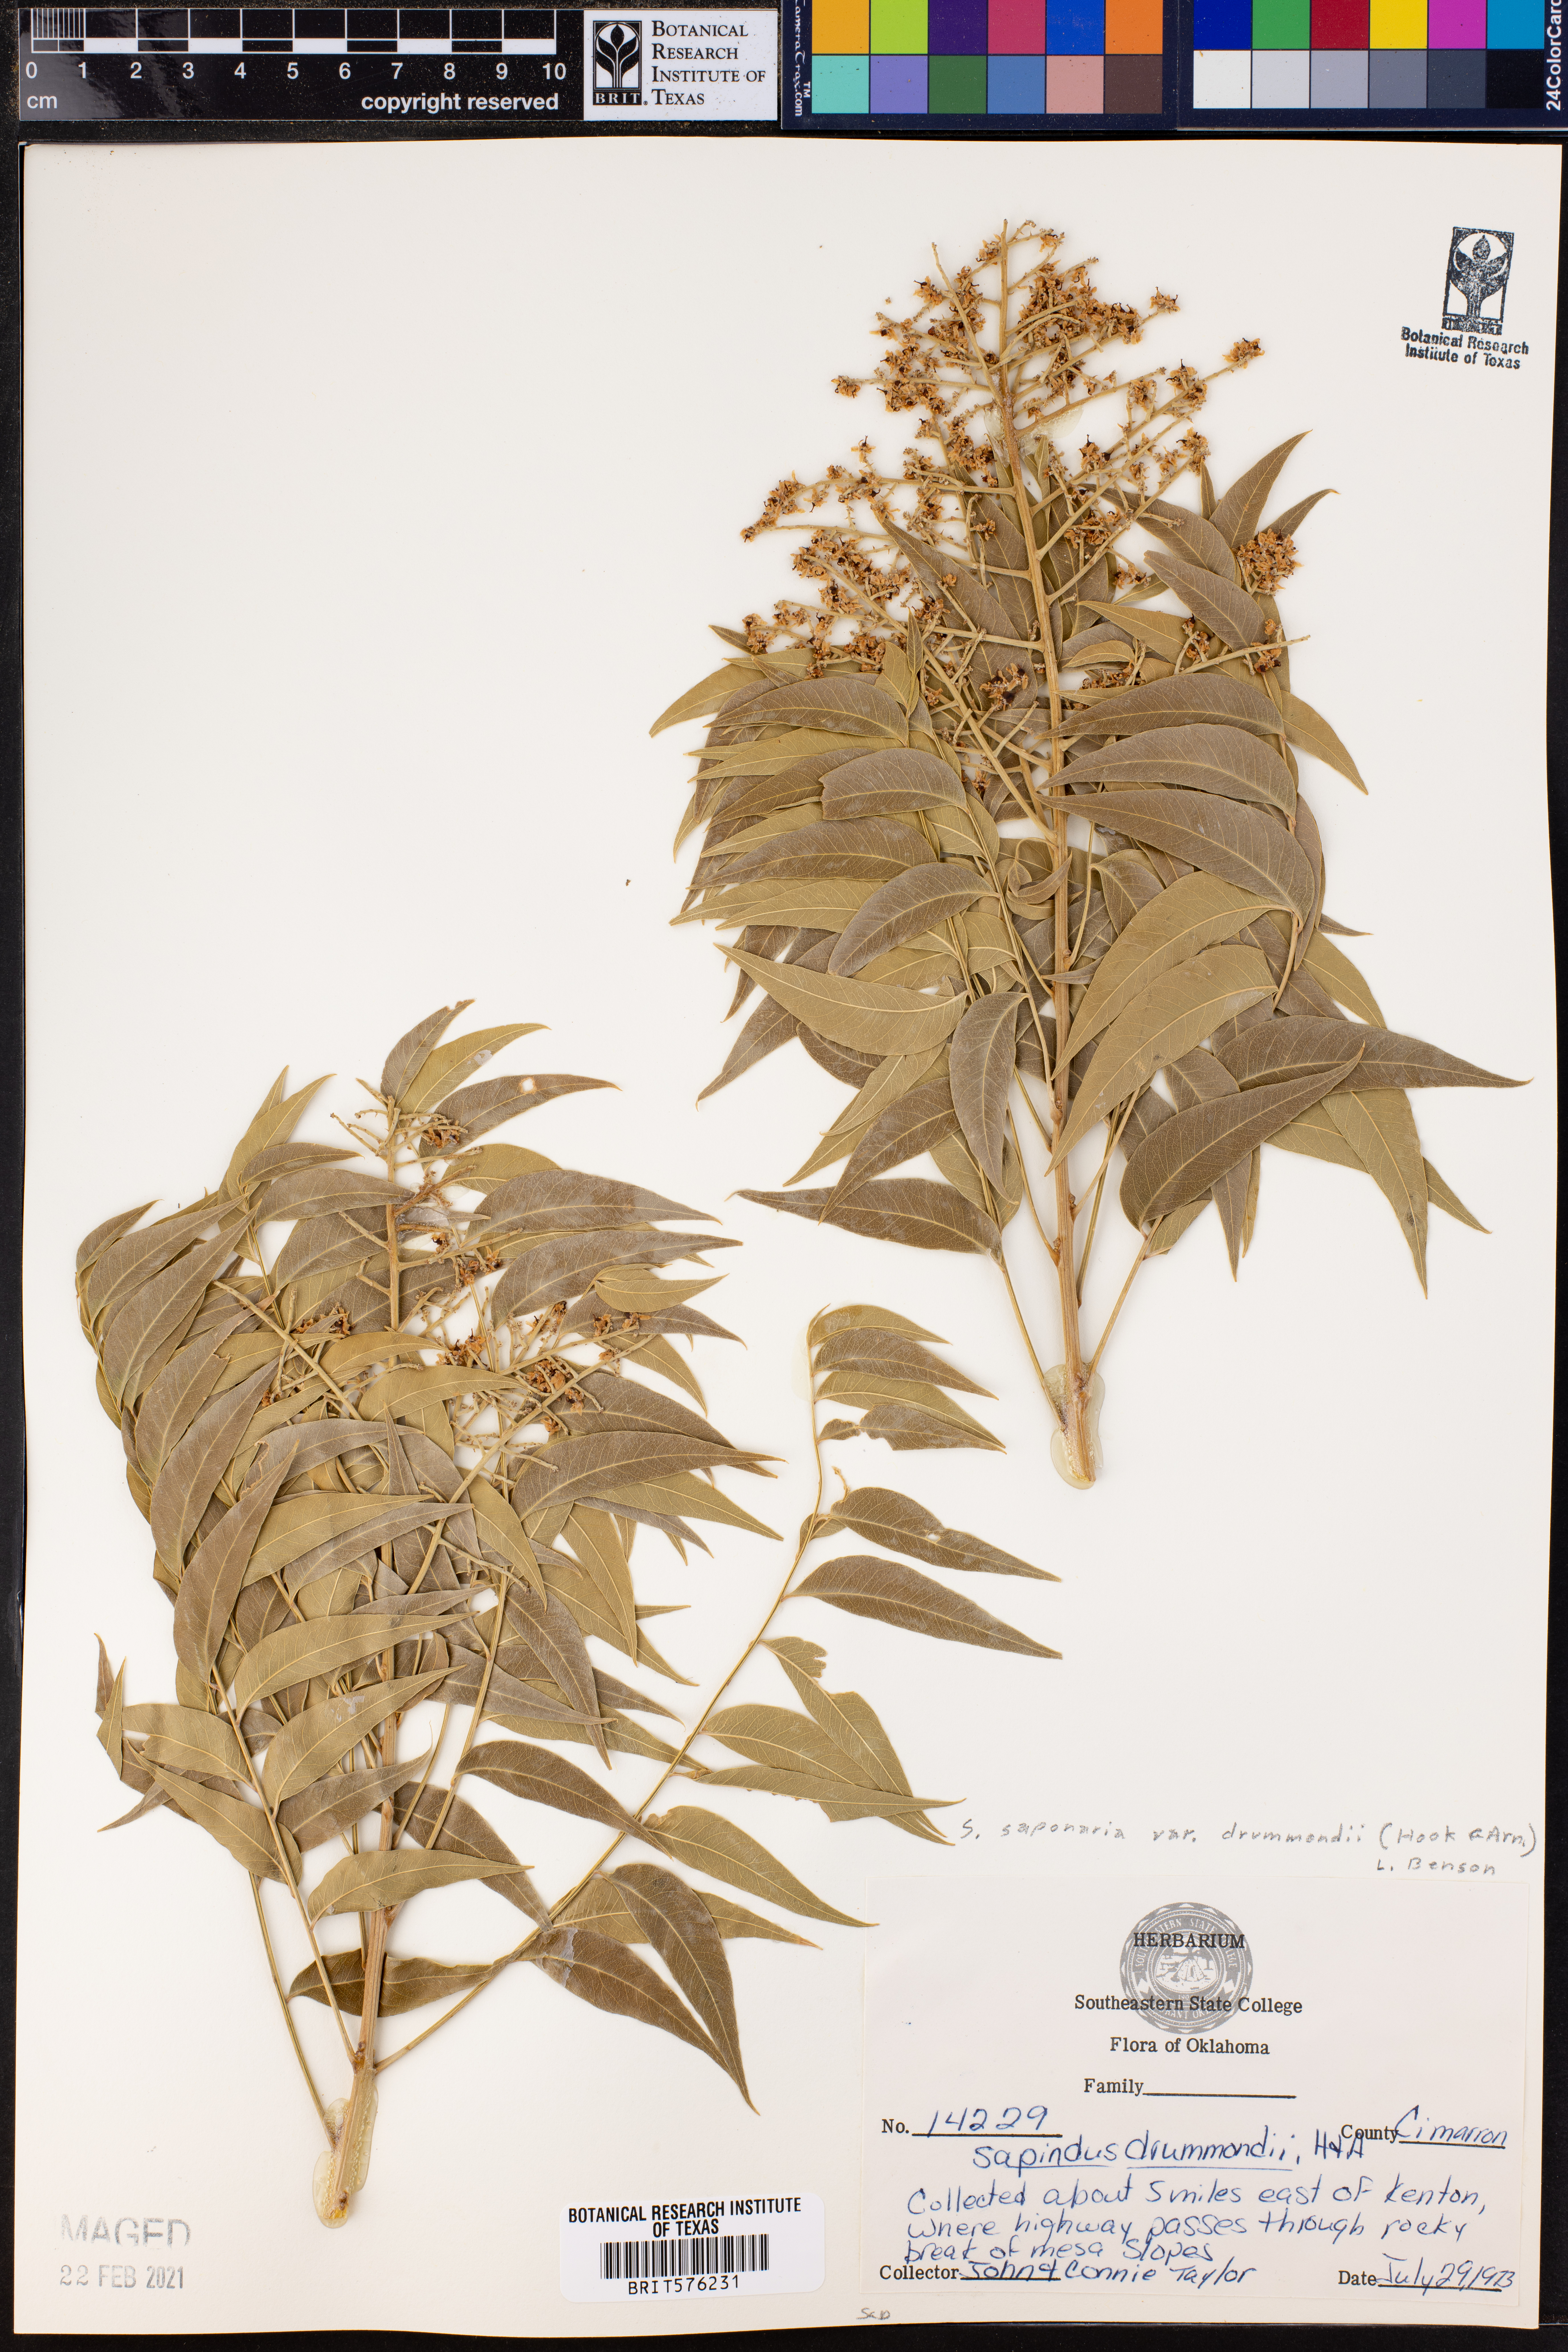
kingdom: Plantae
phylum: Tracheophyta
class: Magnoliopsida
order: Sapindales
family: Sapindaceae
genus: Sapindus
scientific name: Sapindus drummondii
